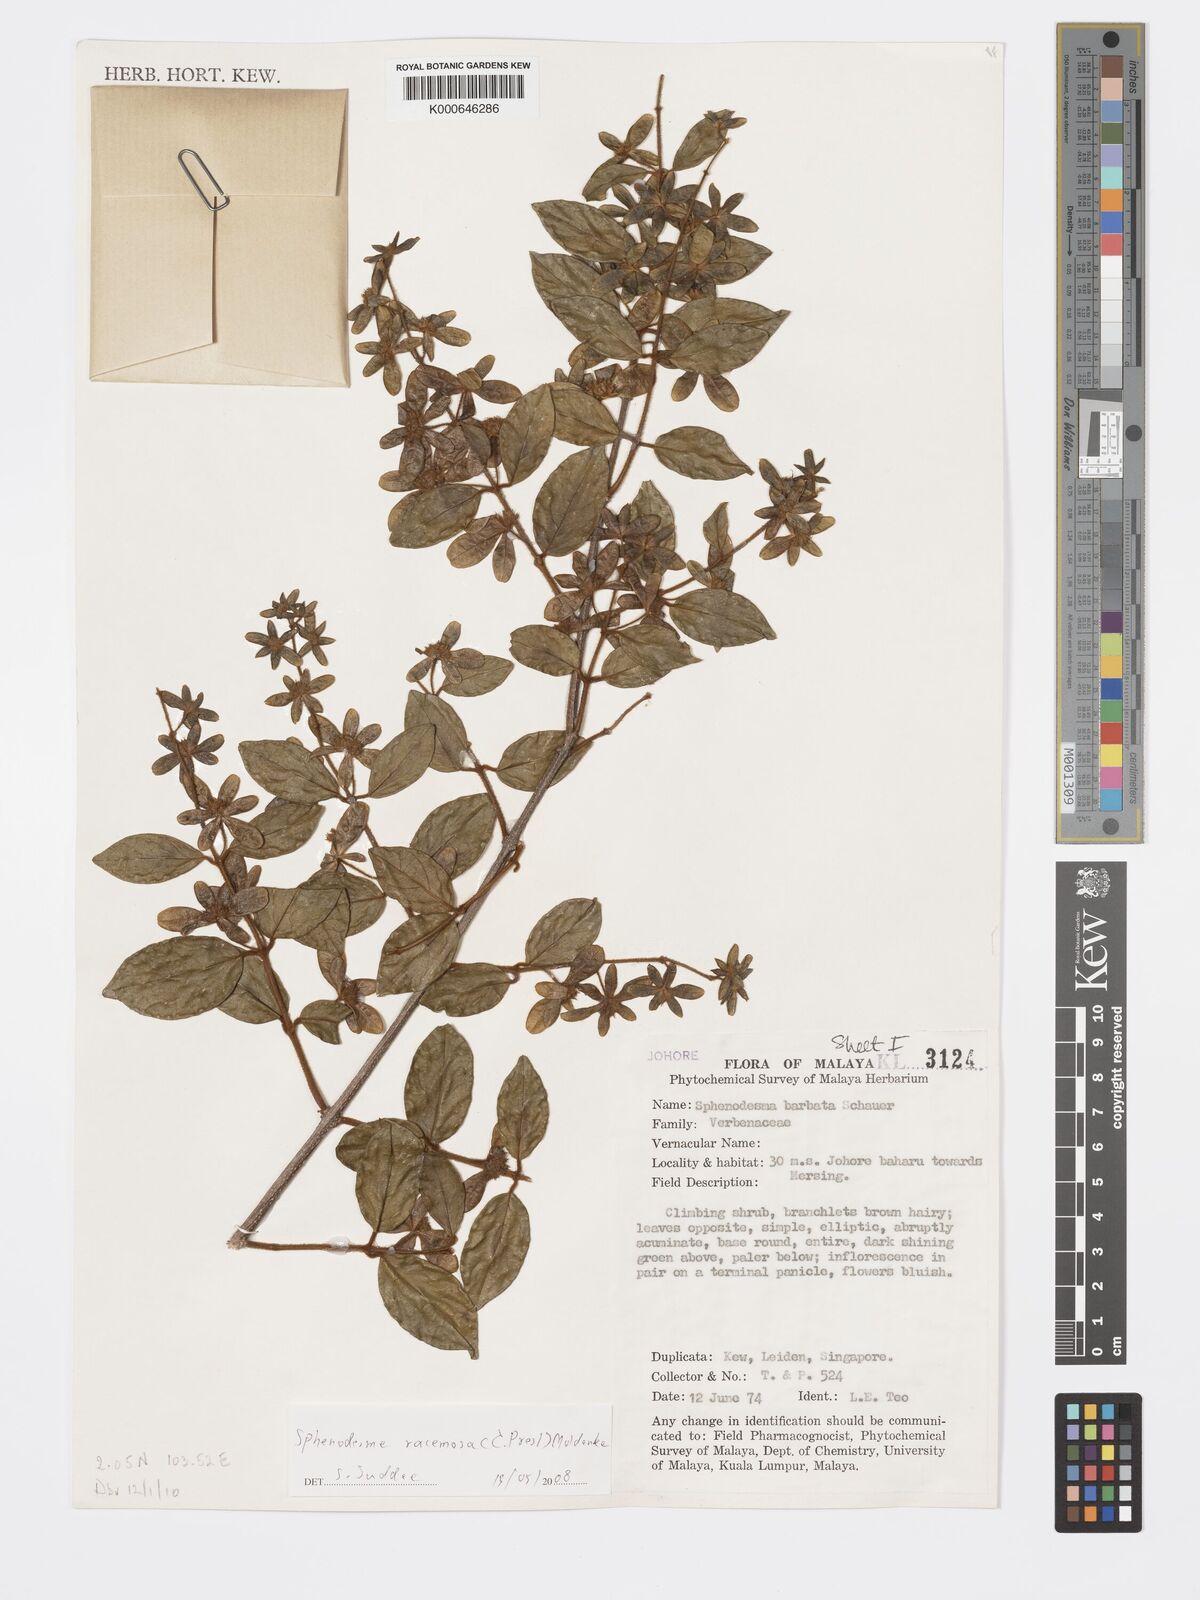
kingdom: Plantae
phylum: Tracheophyta
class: Magnoliopsida
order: Lamiales
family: Lamiaceae
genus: Sphenodesme
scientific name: Sphenodesme racemosa
